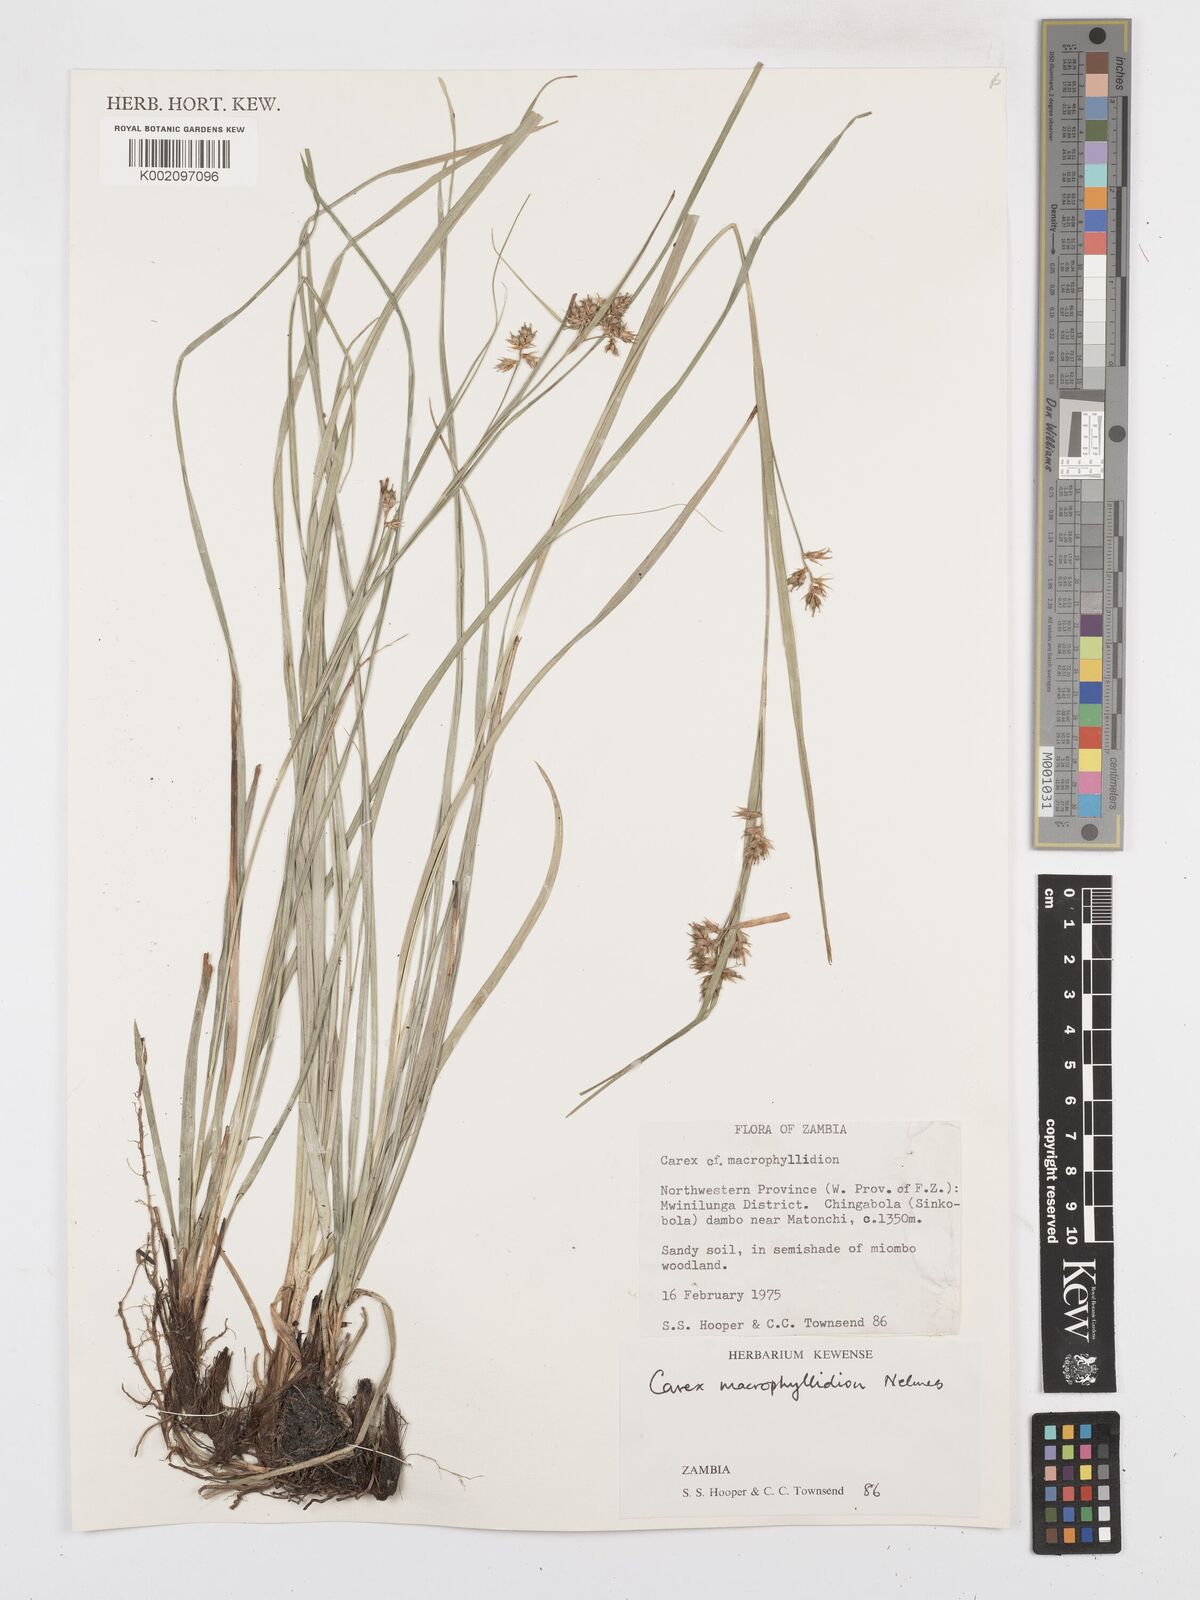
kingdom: Plantae
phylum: Tracheophyta
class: Liliopsida
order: Poales
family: Cyperaceae
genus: Carex
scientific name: Carex macrophyllidion
